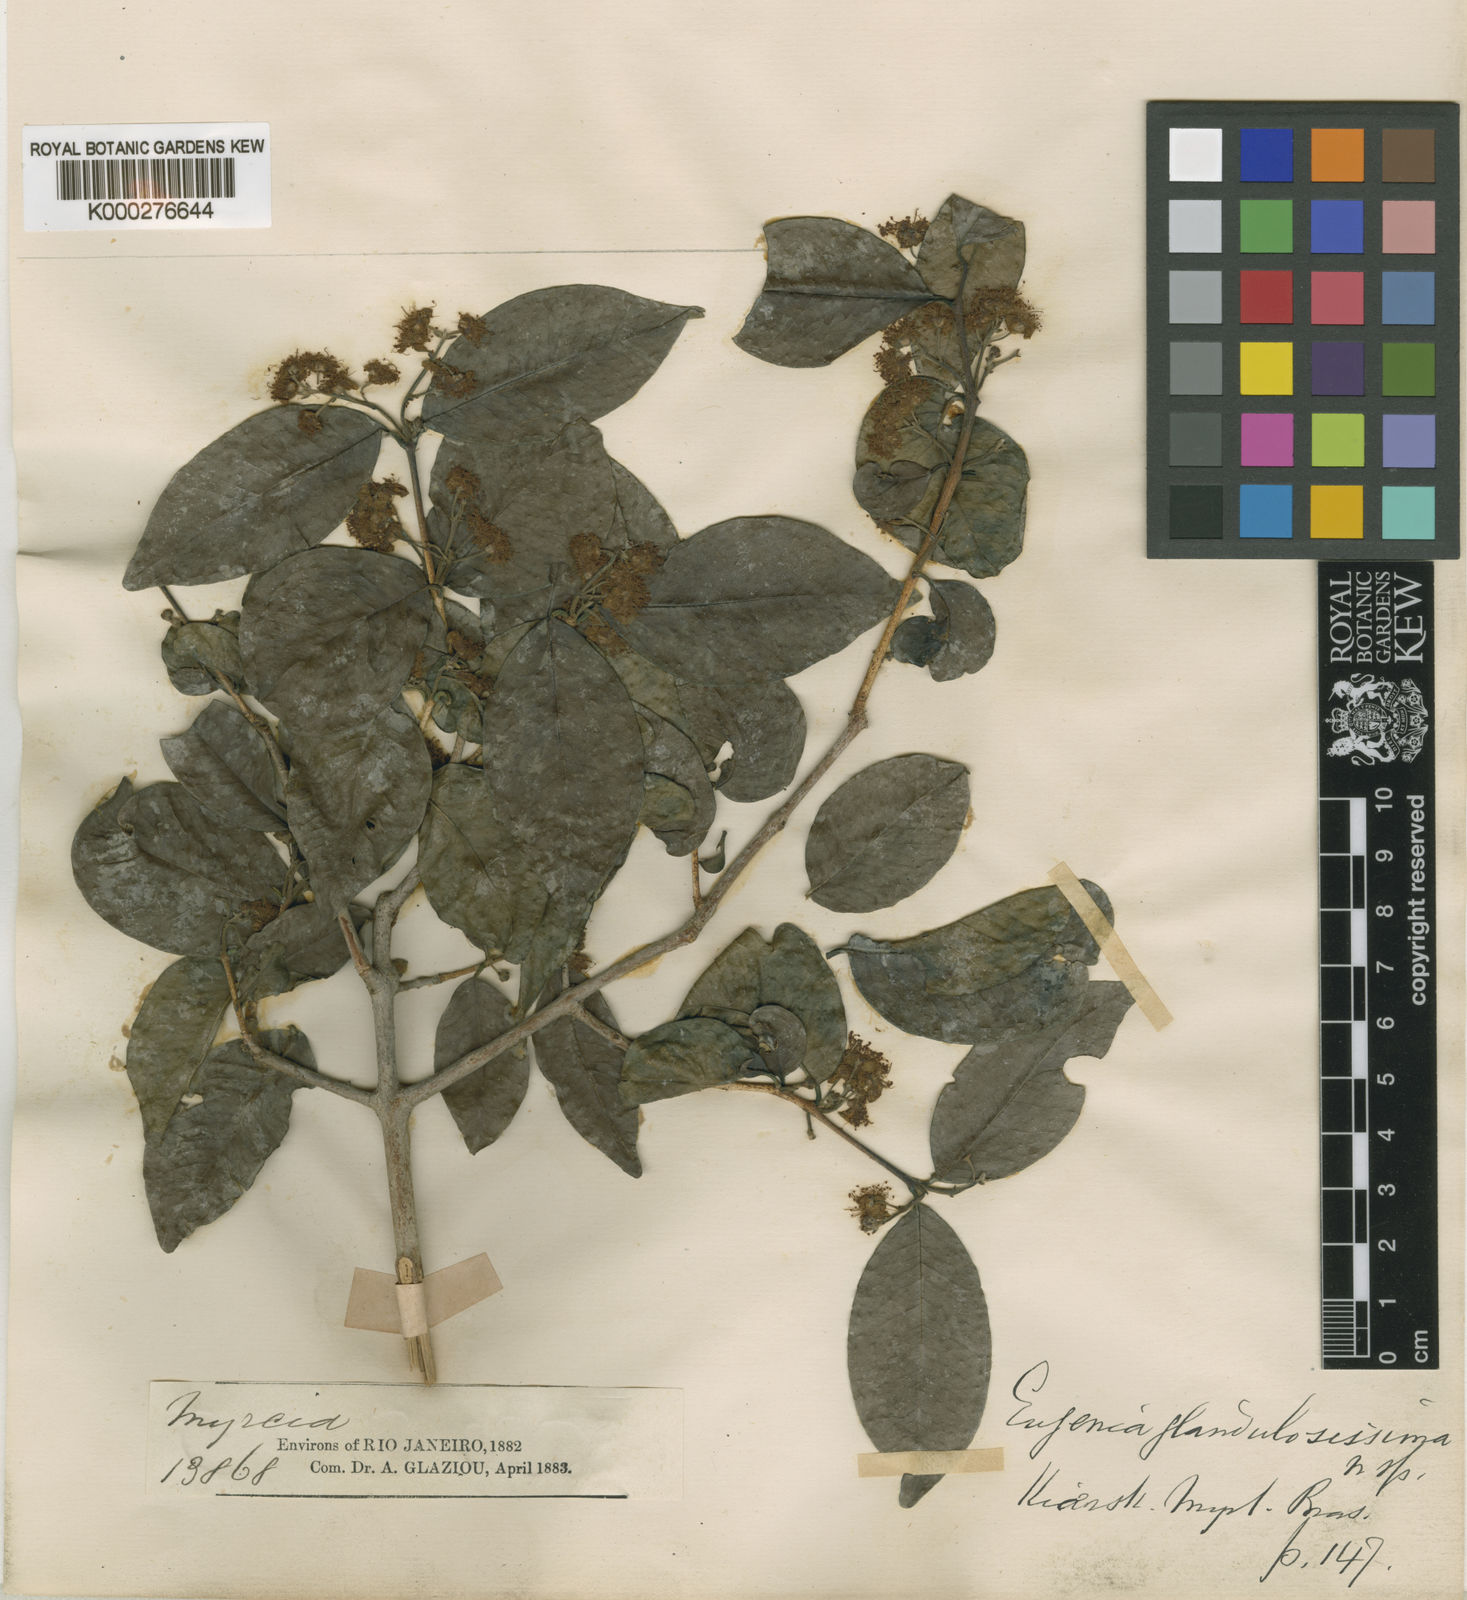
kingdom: Plantae
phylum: Tracheophyta
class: Magnoliopsida
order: Myrtales
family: Myrtaceae
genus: Eugenia
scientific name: Eugenia candolleana
